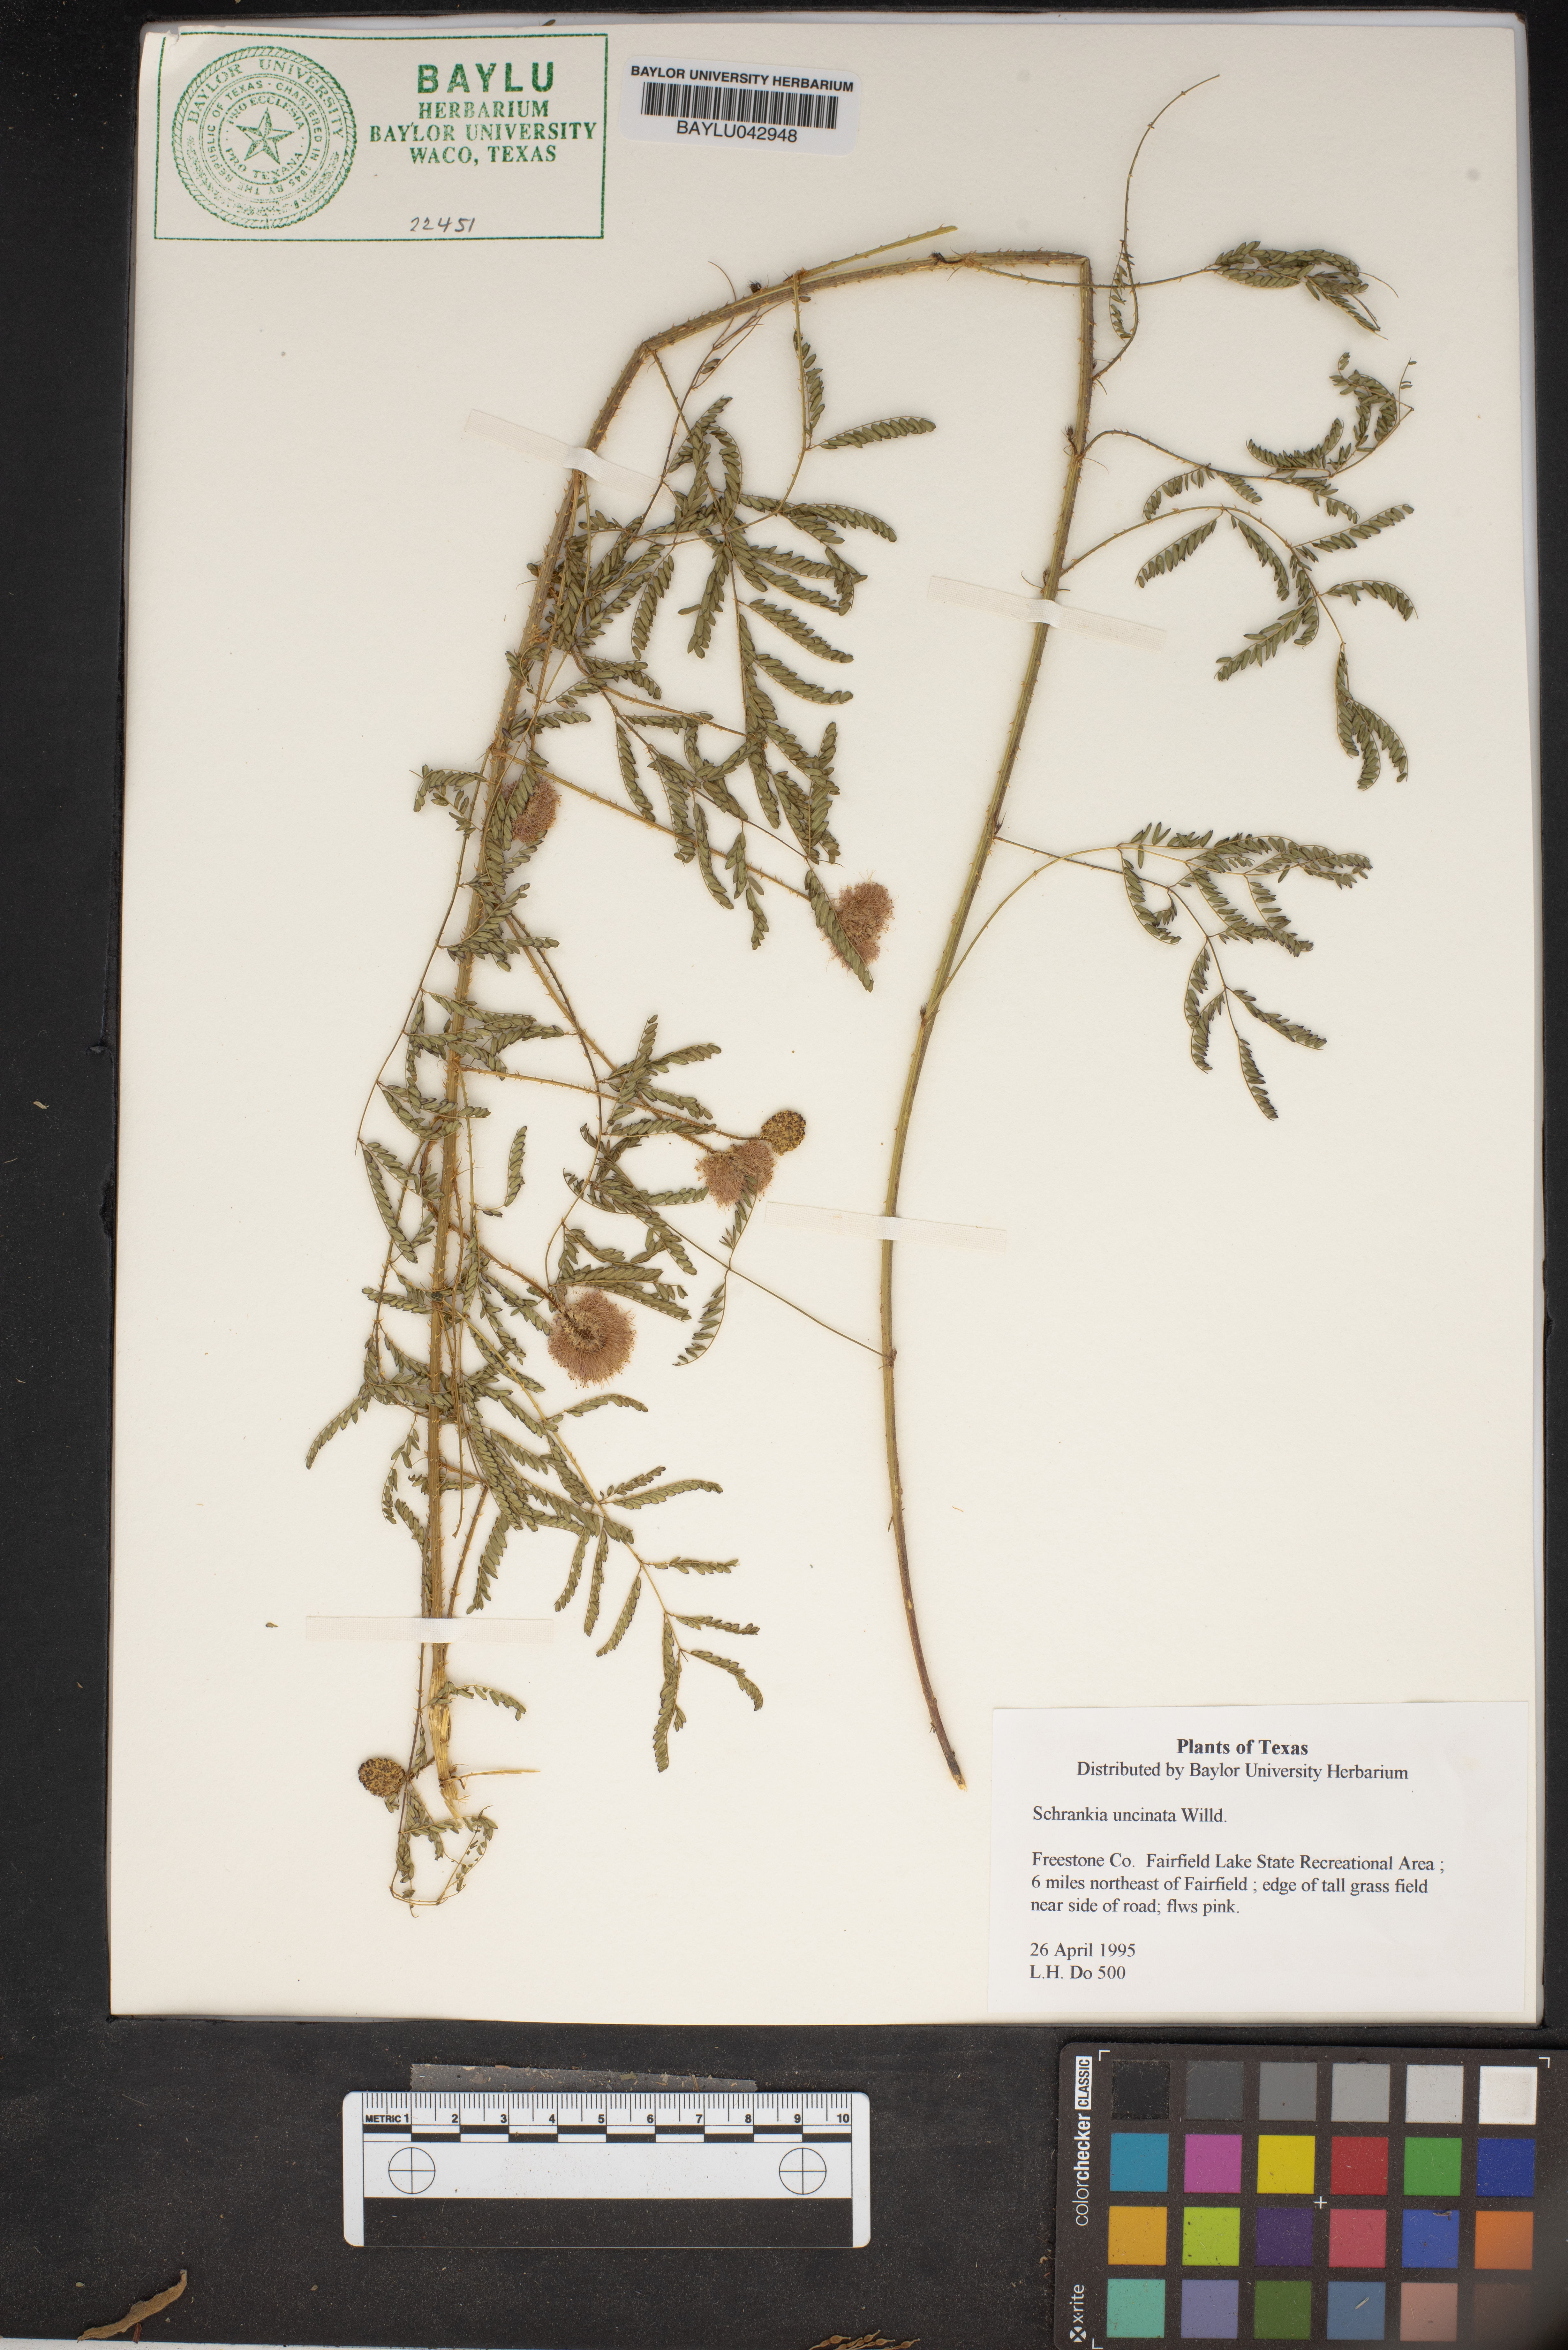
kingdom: Plantae
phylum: Tracheophyta
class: Magnoliopsida
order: Fabales
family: Fabaceae
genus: Mimosa
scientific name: Mimosa quadrivalvis
